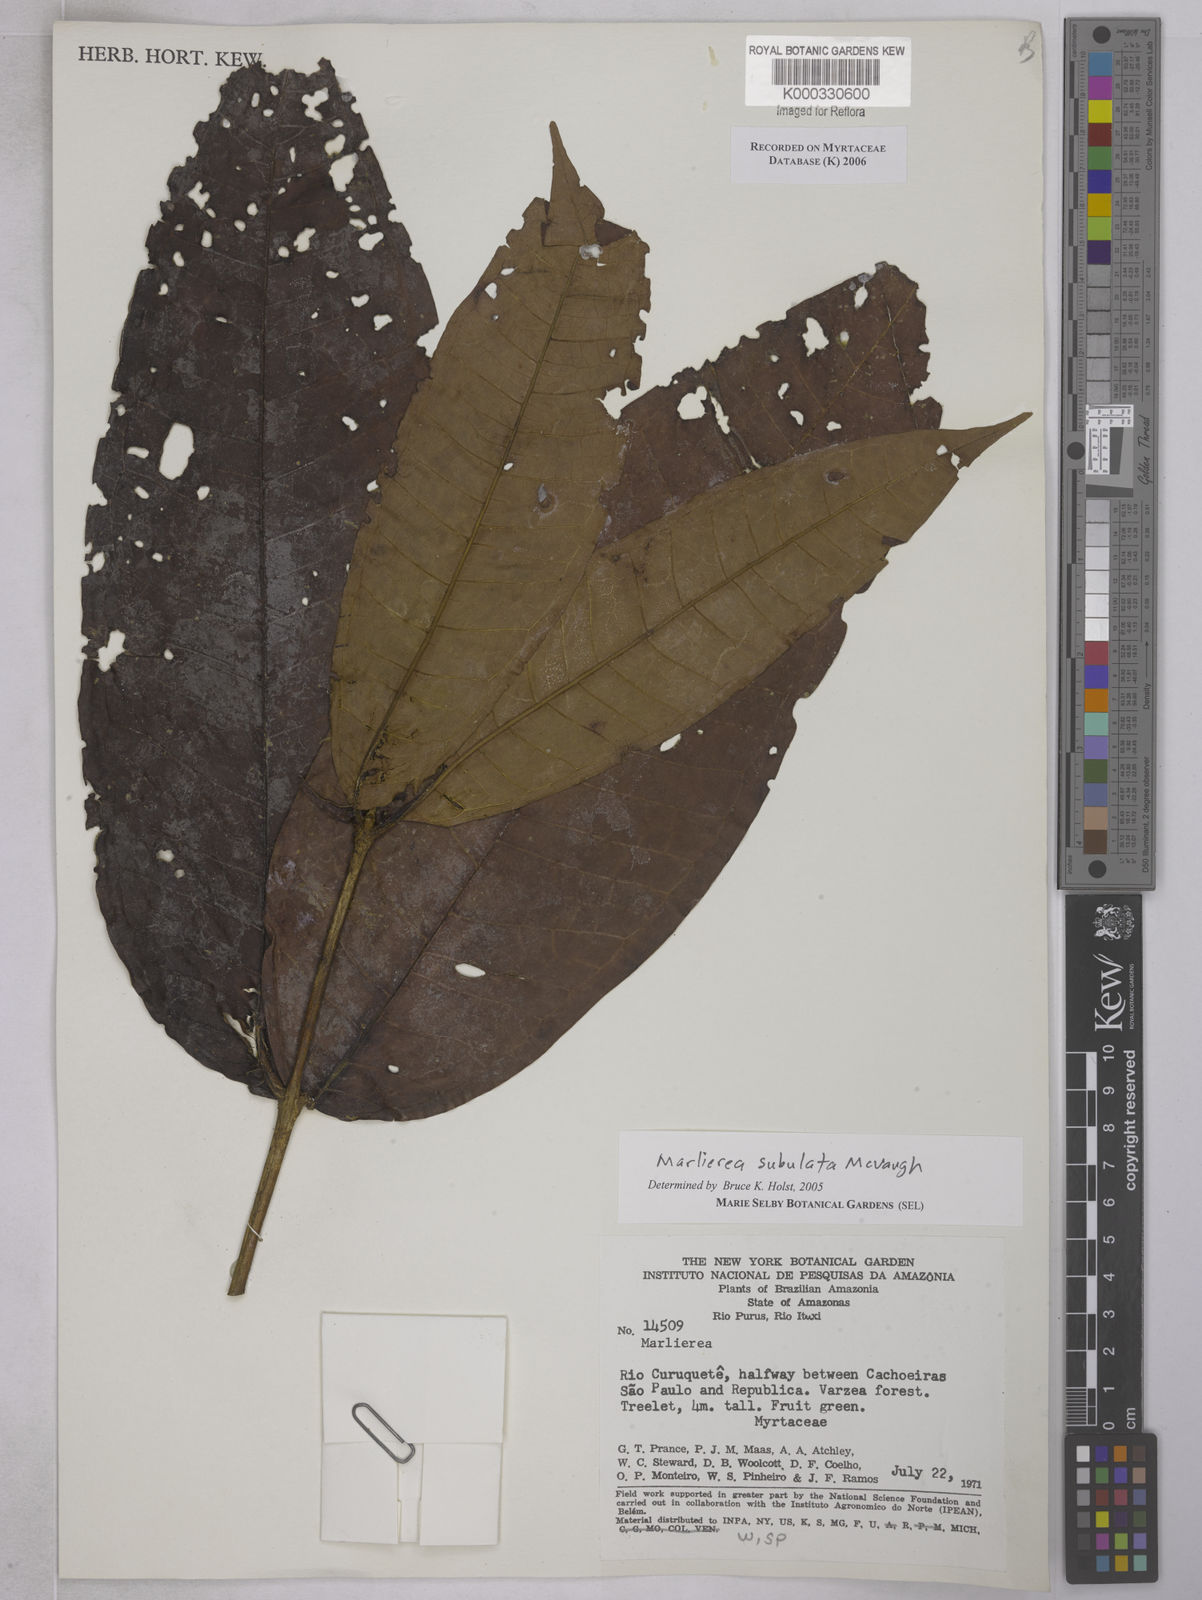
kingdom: Plantae
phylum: Tracheophyta
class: Magnoliopsida
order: Myrtales
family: Myrtaceae
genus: Myrcia
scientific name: Myrcia subulata
